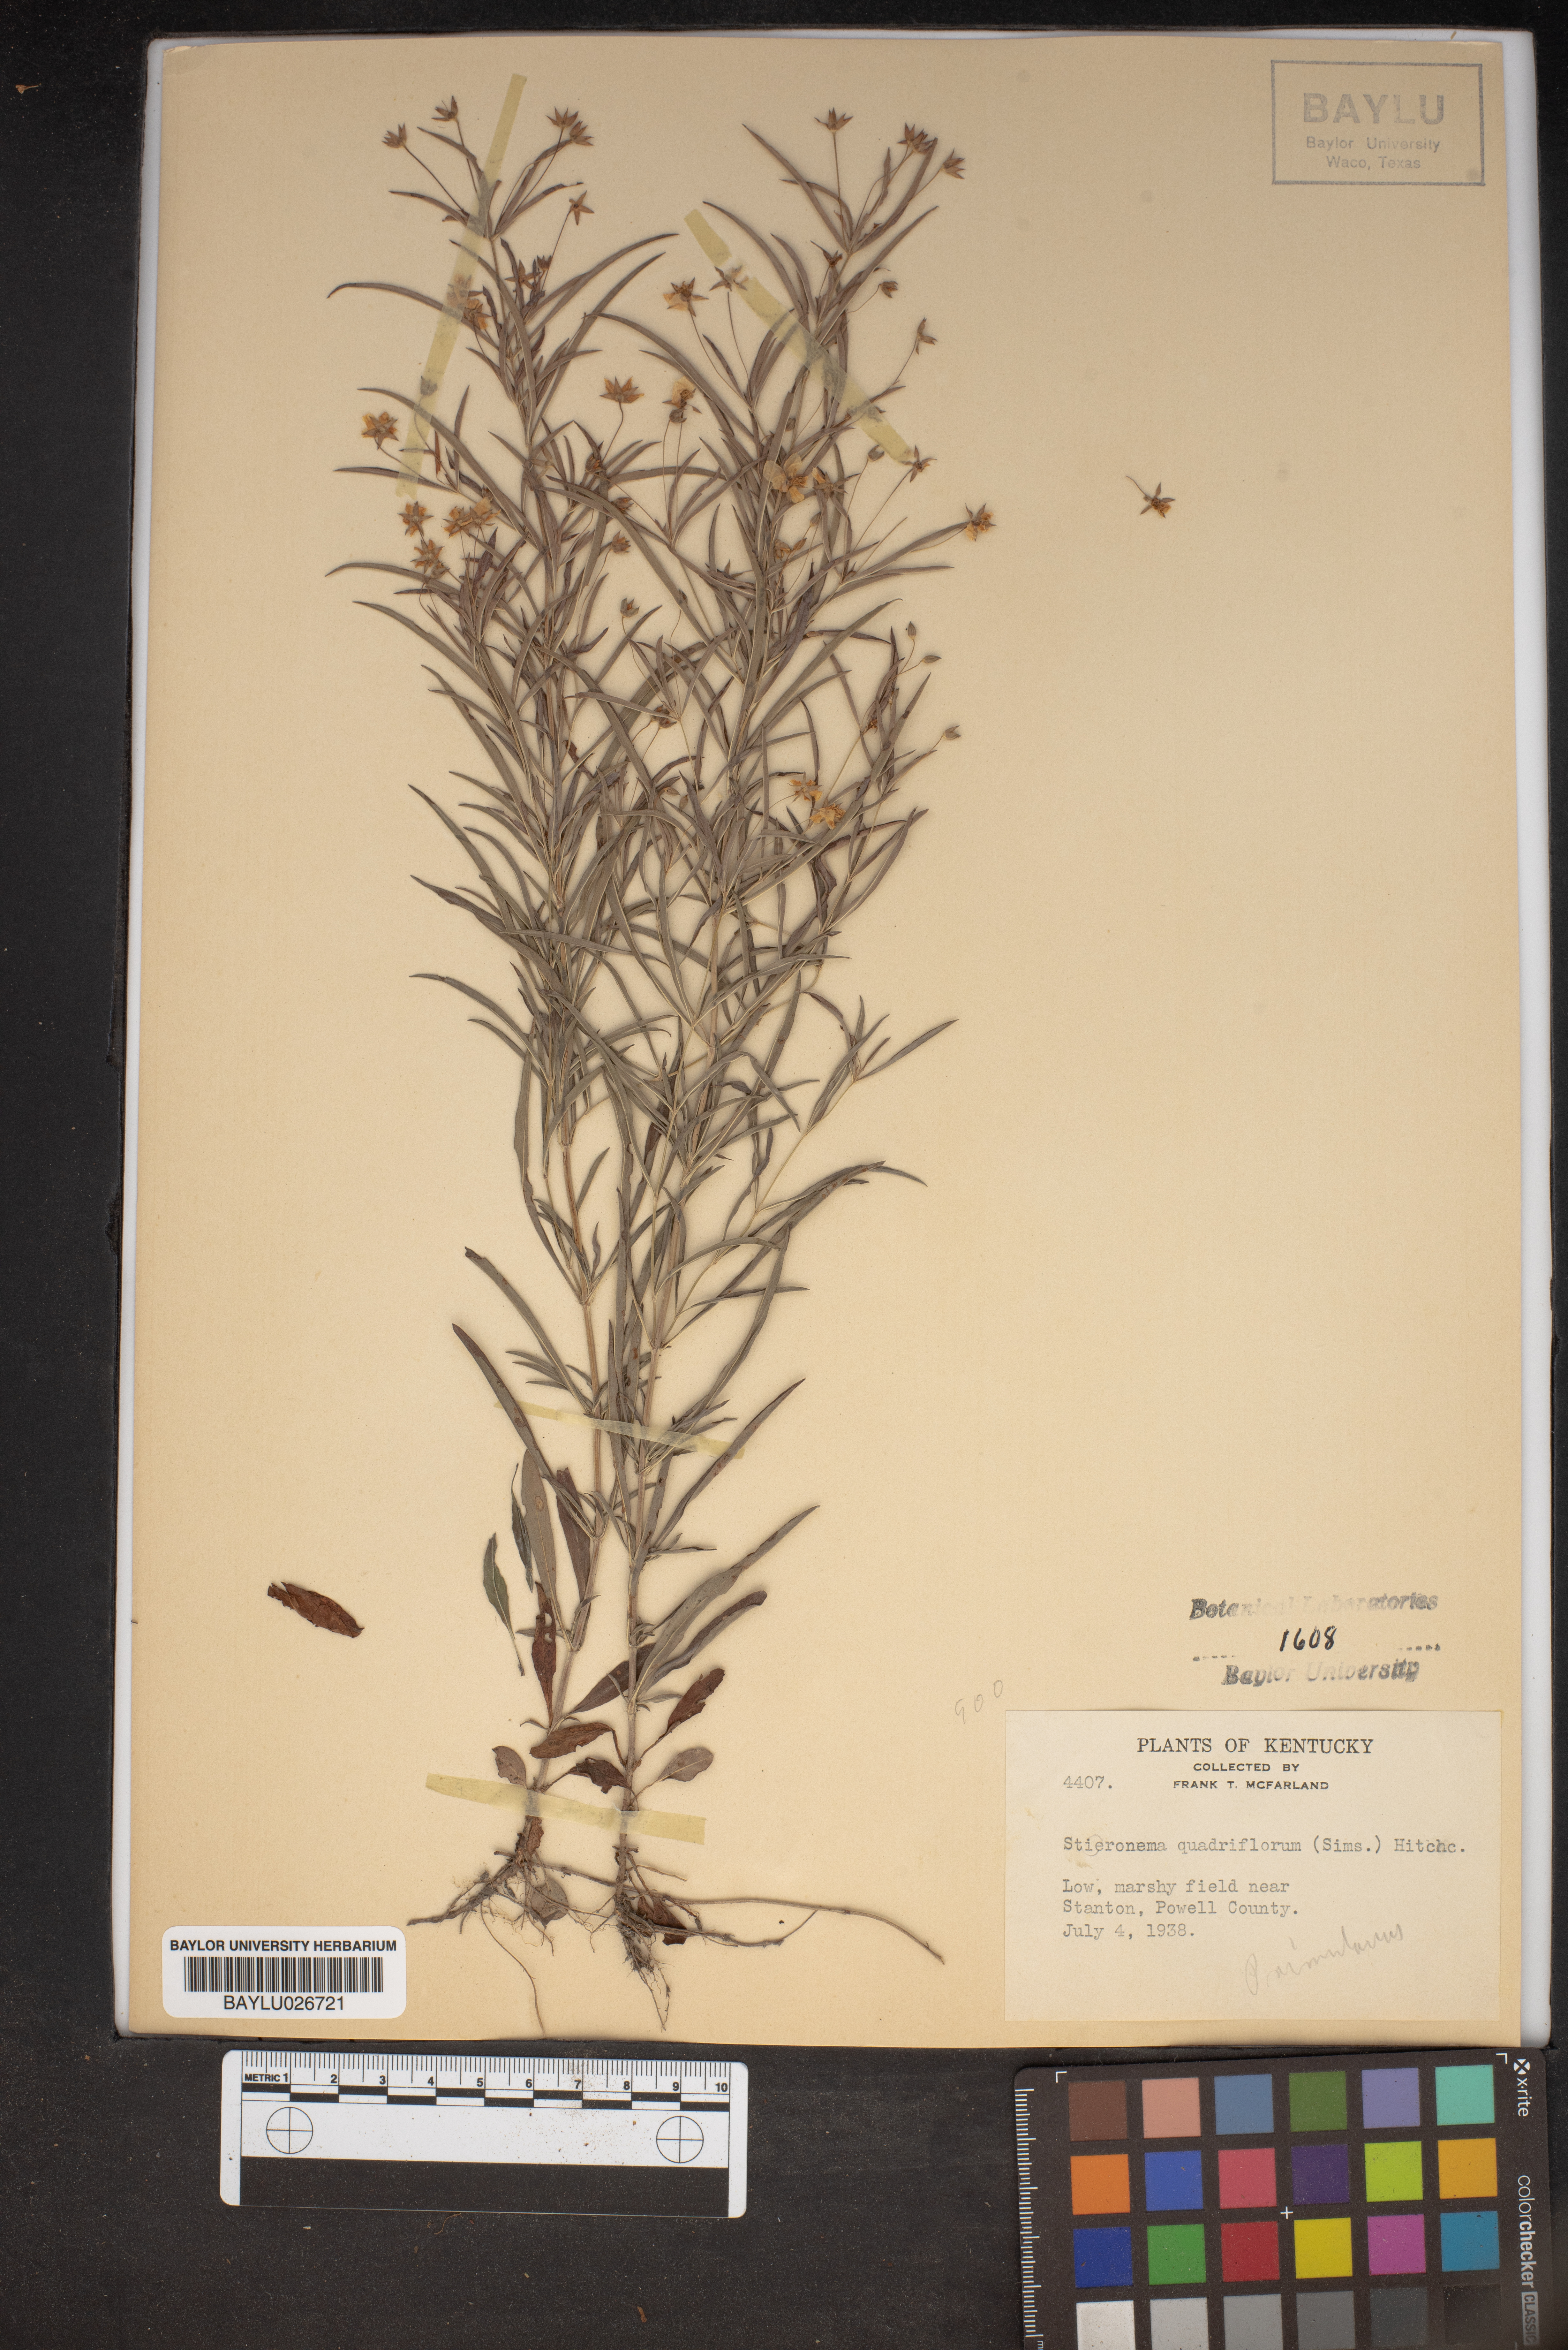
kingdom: Plantae
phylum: Tracheophyta
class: Magnoliopsida
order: Ericales
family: Primulaceae
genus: Lysimachia
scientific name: Lysimachia quadriflora
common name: Four-flowered loosestrife
